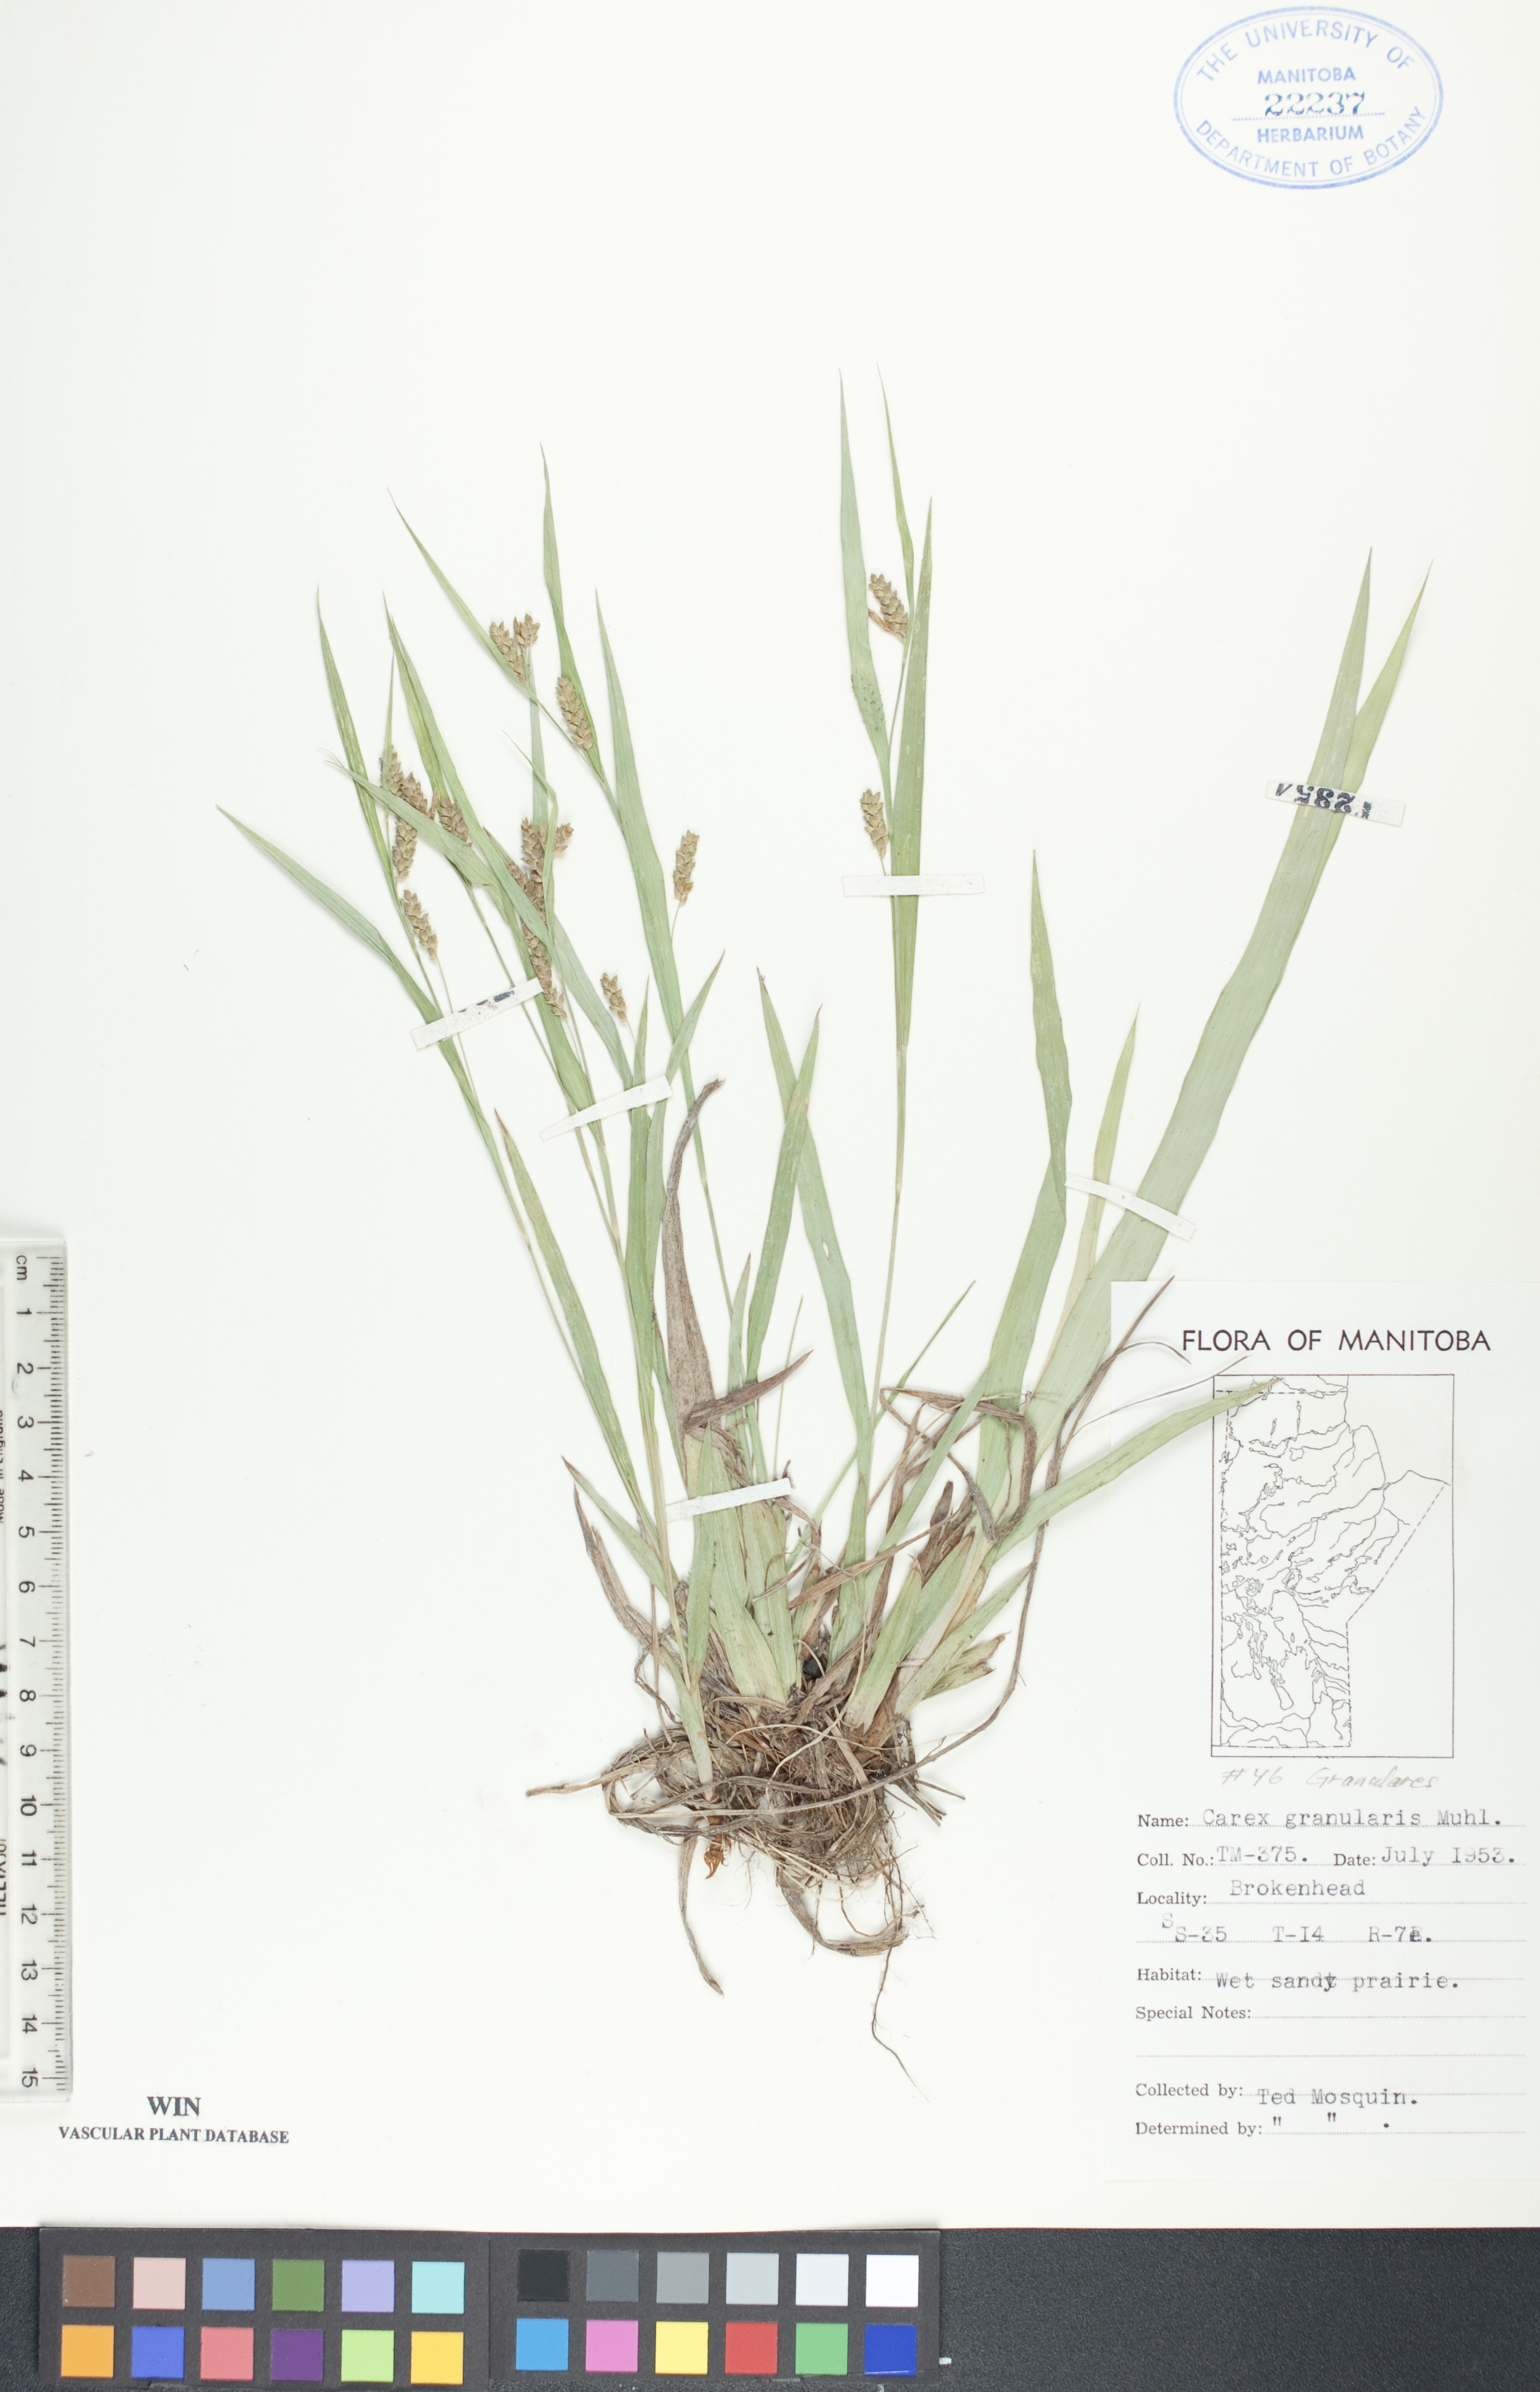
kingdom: Plantae
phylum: Tracheophyta
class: Liliopsida
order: Poales
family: Cyperaceae
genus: Carex
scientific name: Carex granularis
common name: Granular sedge
